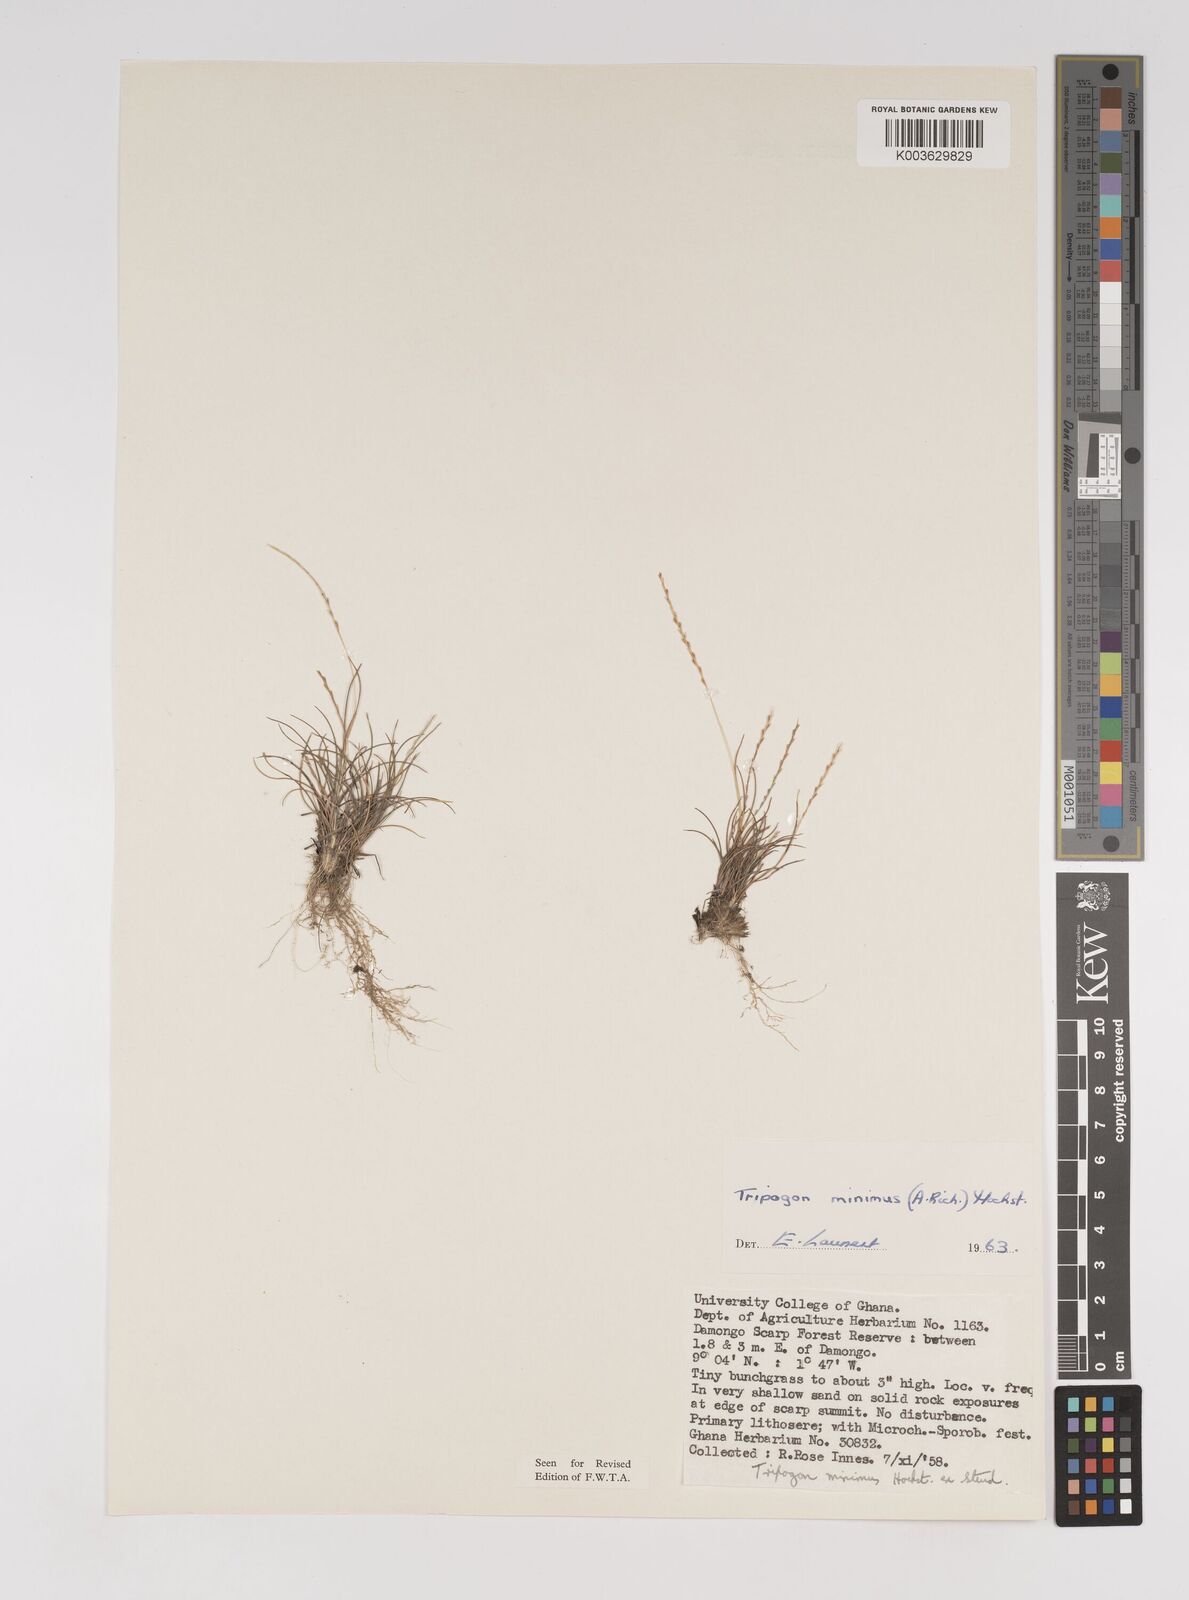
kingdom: Plantae
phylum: Tracheophyta
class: Liliopsida
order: Poales
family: Poaceae
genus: Tripogonella
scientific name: Tripogonella minima
